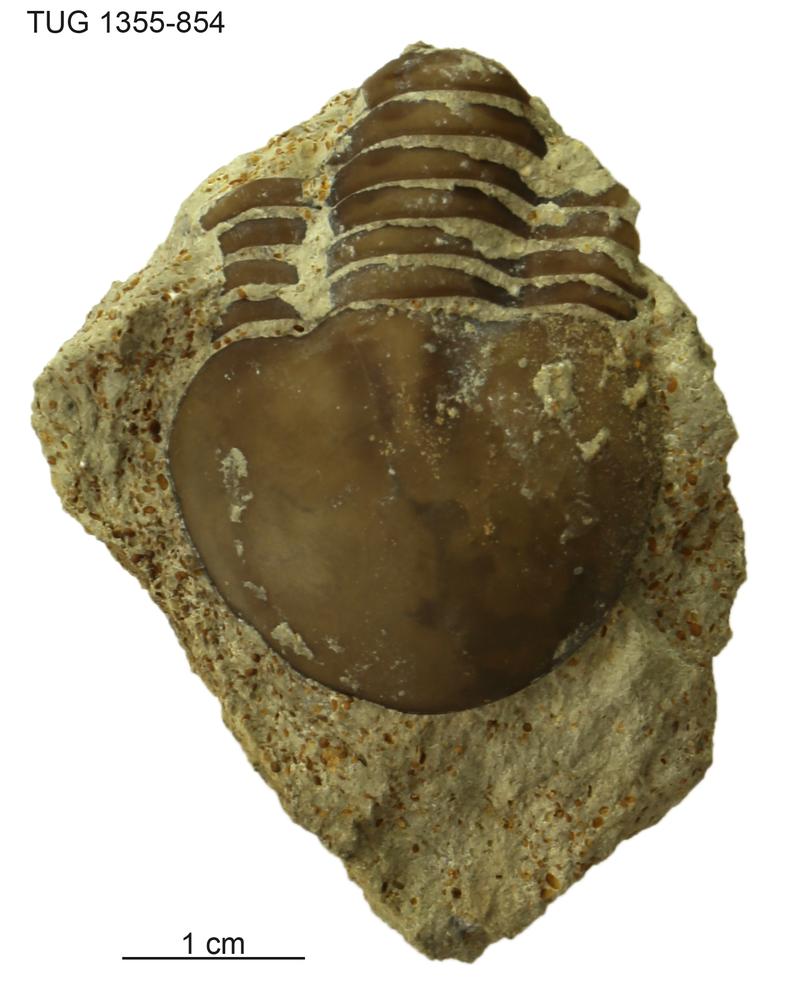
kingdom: Animalia
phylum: Arthropoda
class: Trilobita
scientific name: Trilobita
